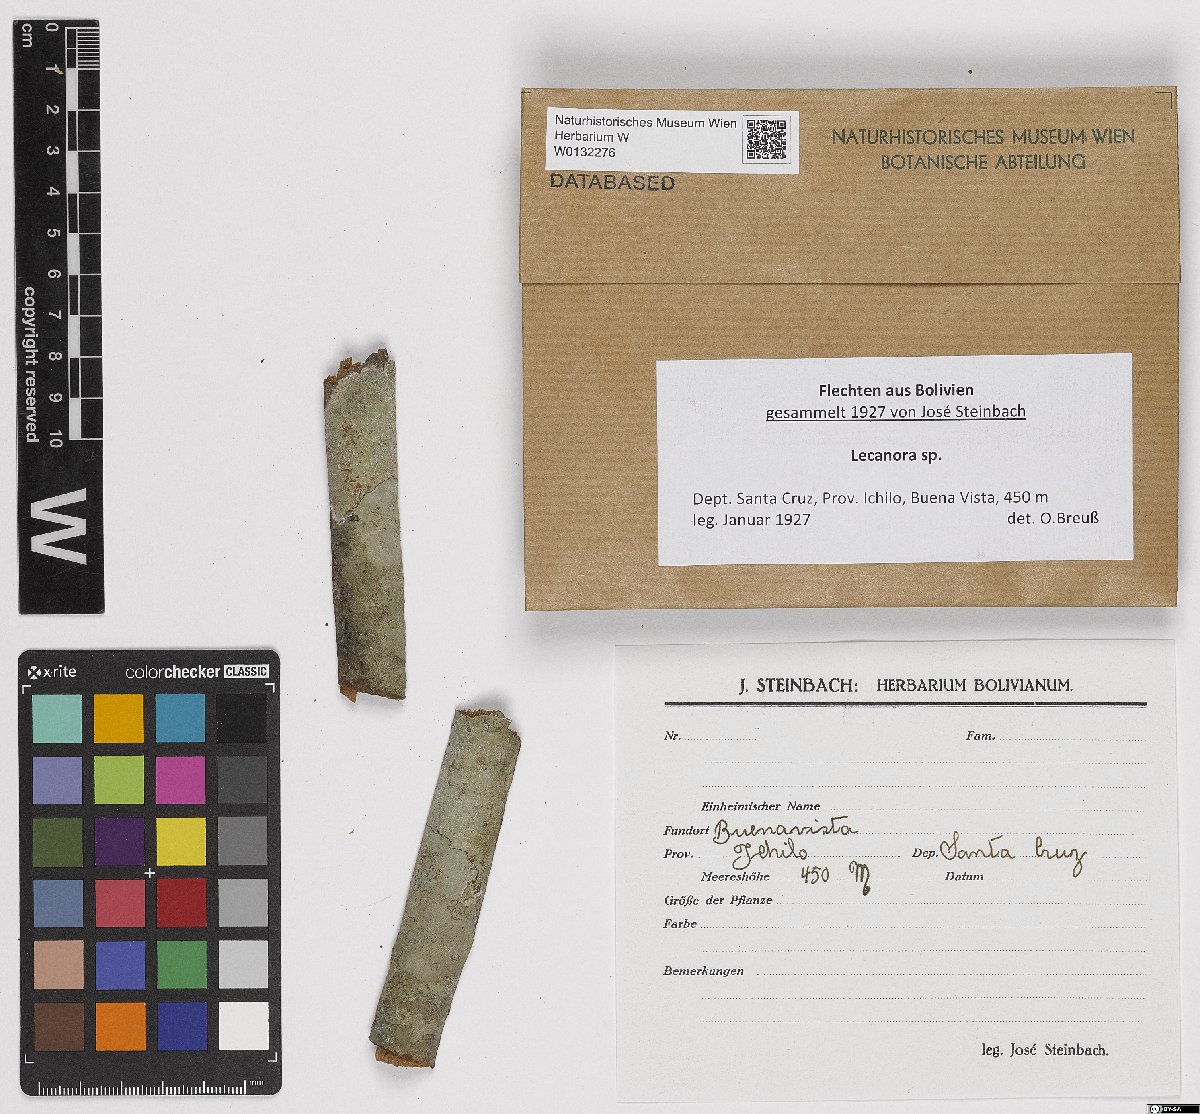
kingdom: Fungi
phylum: Ascomycota
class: Lecanoromycetes
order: Lecanorales
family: Lecanoraceae
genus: Lecanora
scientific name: Lecanora
